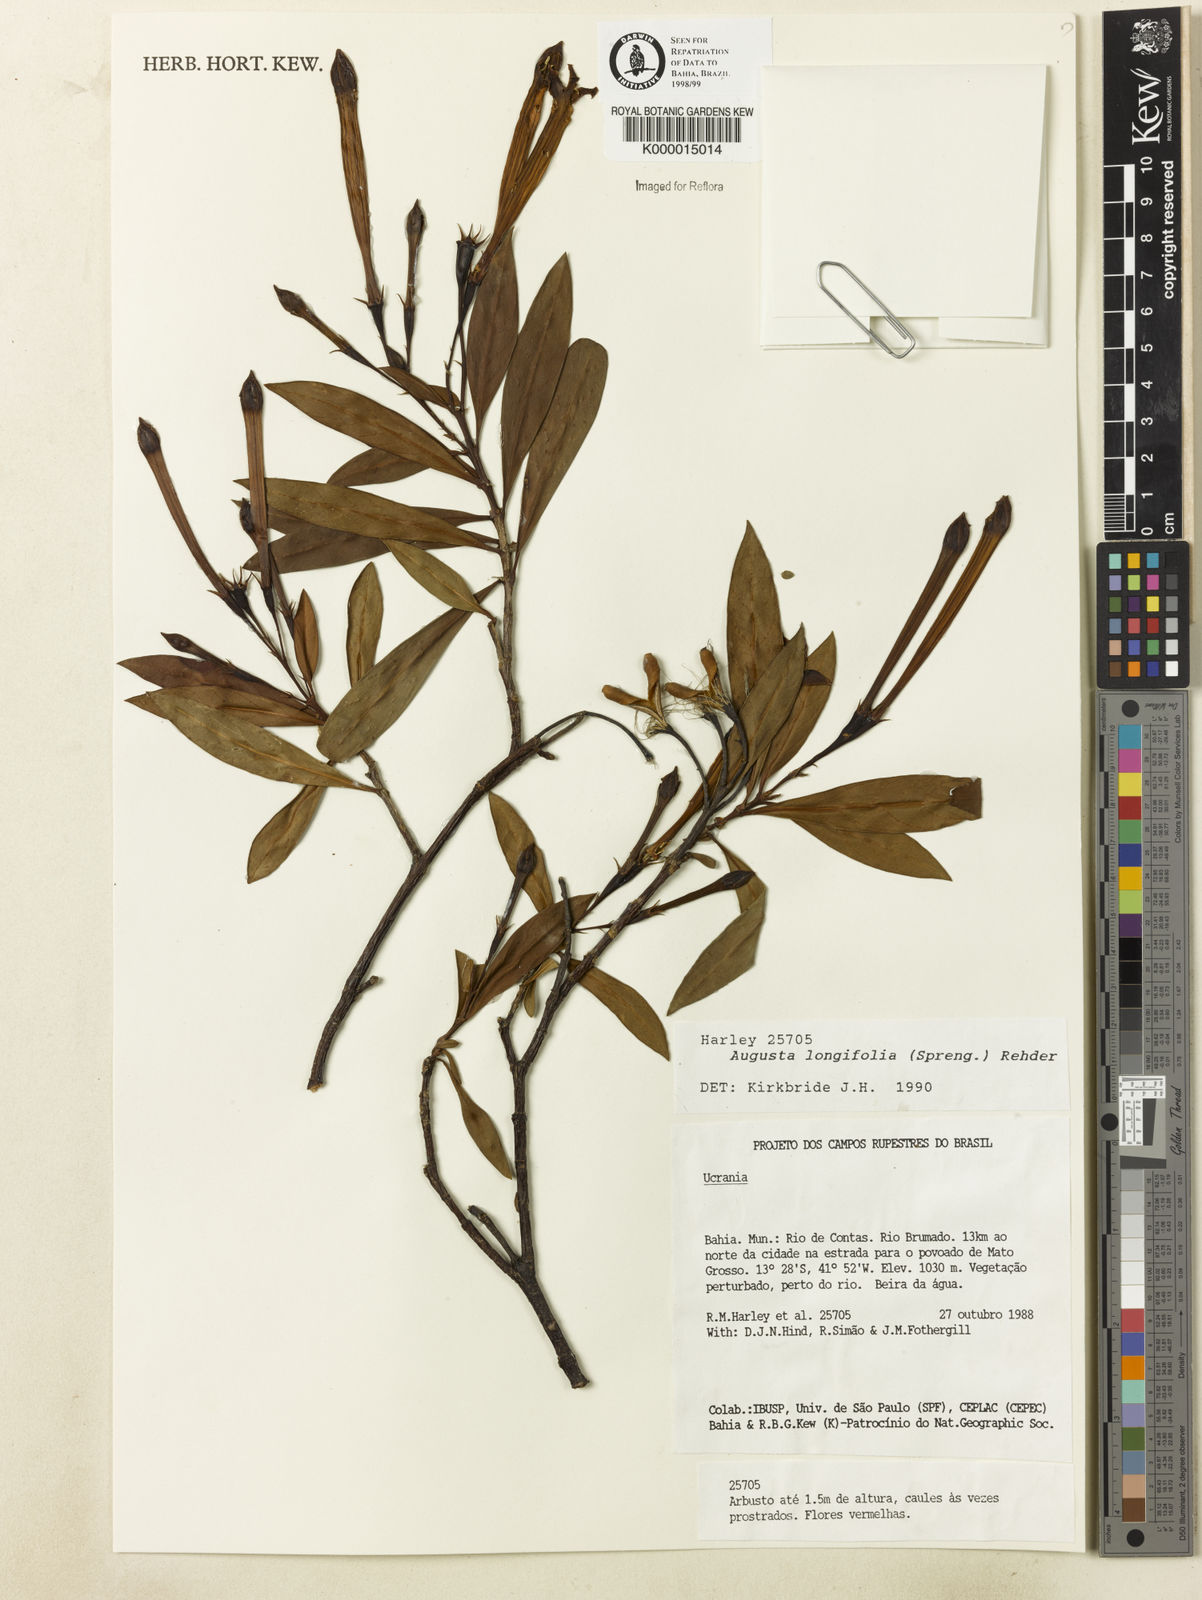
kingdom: Plantae
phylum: Tracheophyta
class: Magnoliopsida
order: Gentianales
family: Rubiaceae
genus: Augusta
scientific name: Augusta longifolia
